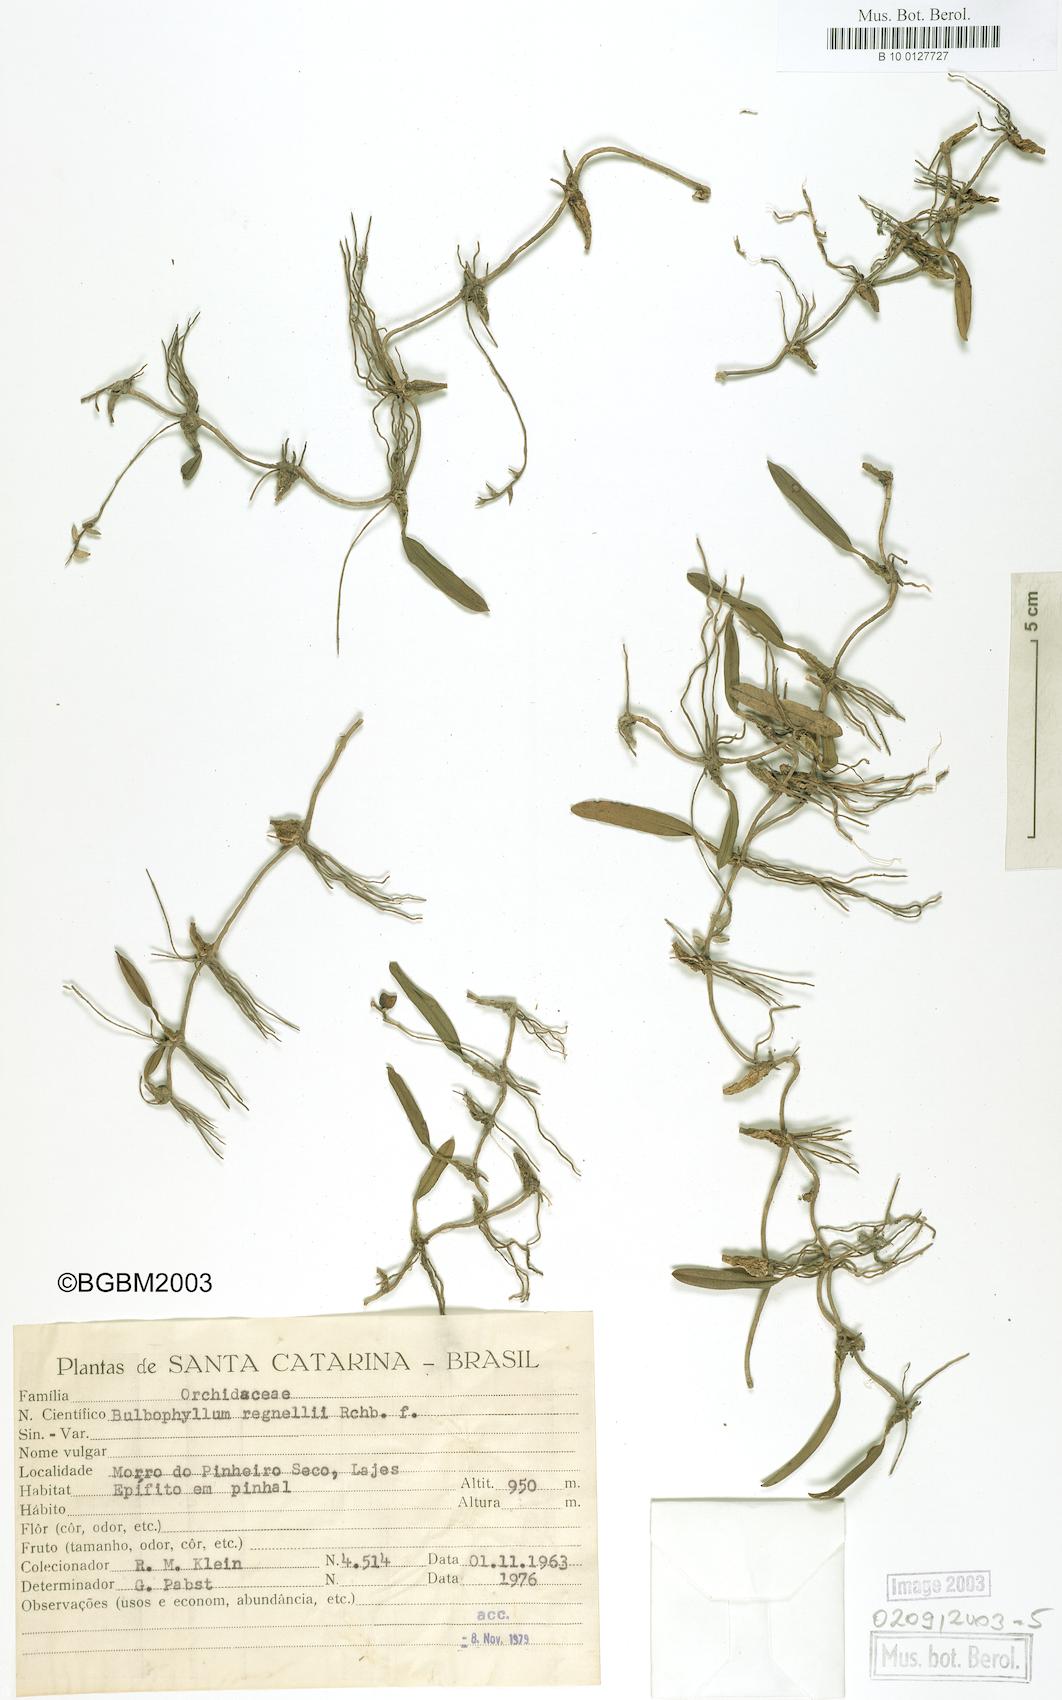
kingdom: Plantae
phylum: Tracheophyta
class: Liliopsida
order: Asparagales
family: Orchidaceae
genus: Bulbophyllum
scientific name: Bulbophyllum regnellii
